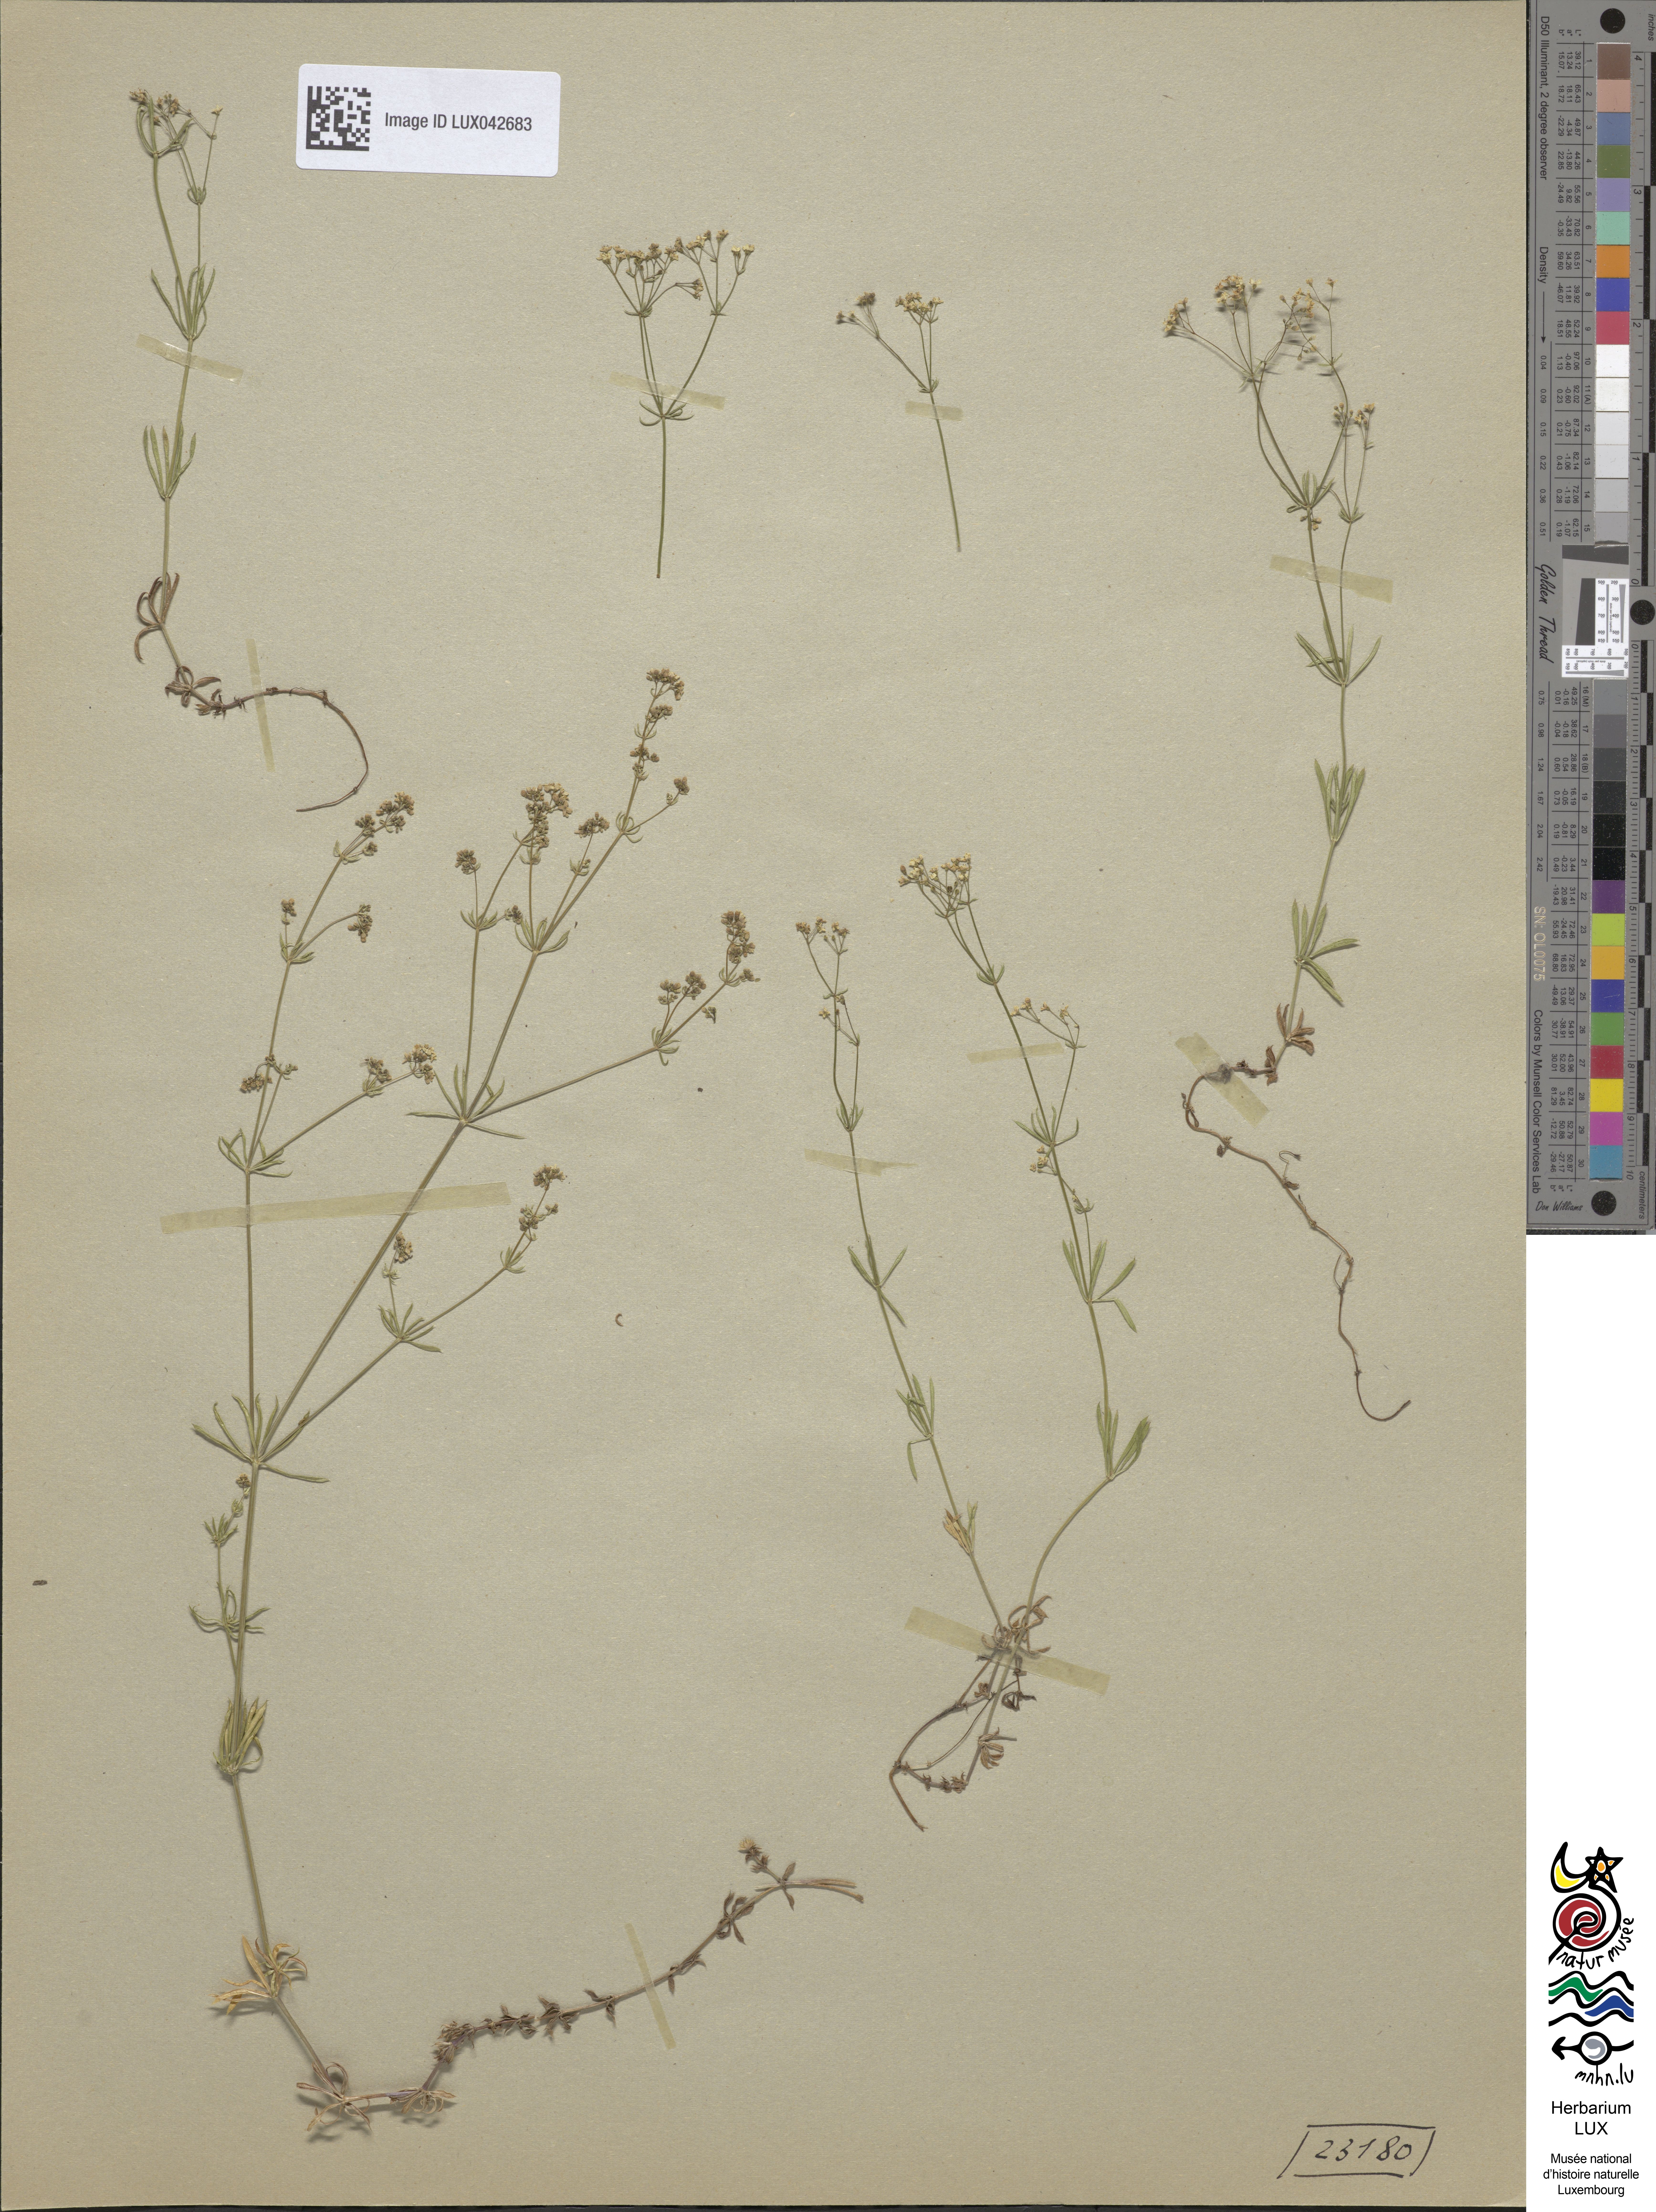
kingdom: Plantae
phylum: Tracheophyta
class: Magnoliopsida
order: Gentianales
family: Rubiaceae
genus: Galium
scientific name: Galium pumilum
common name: Slender bedstraw
